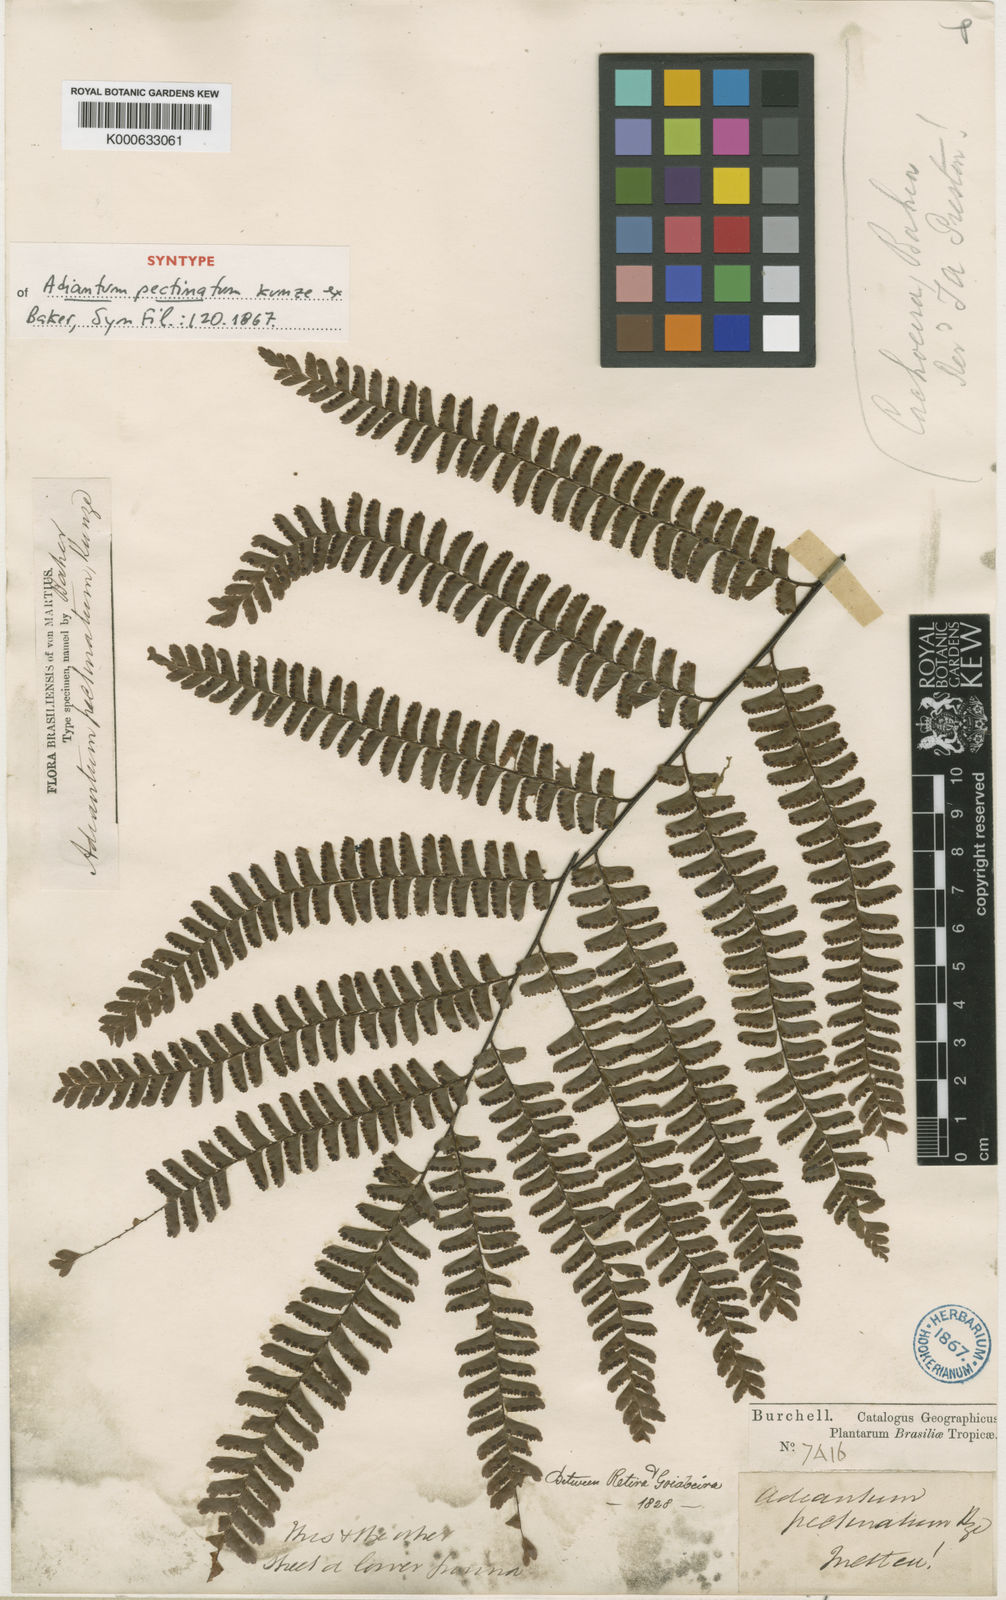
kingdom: Plantae
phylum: Tracheophyta
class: Polypodiopsida
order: Polypodiales
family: Pteridaceae
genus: Adiantum
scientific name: Adiantum
